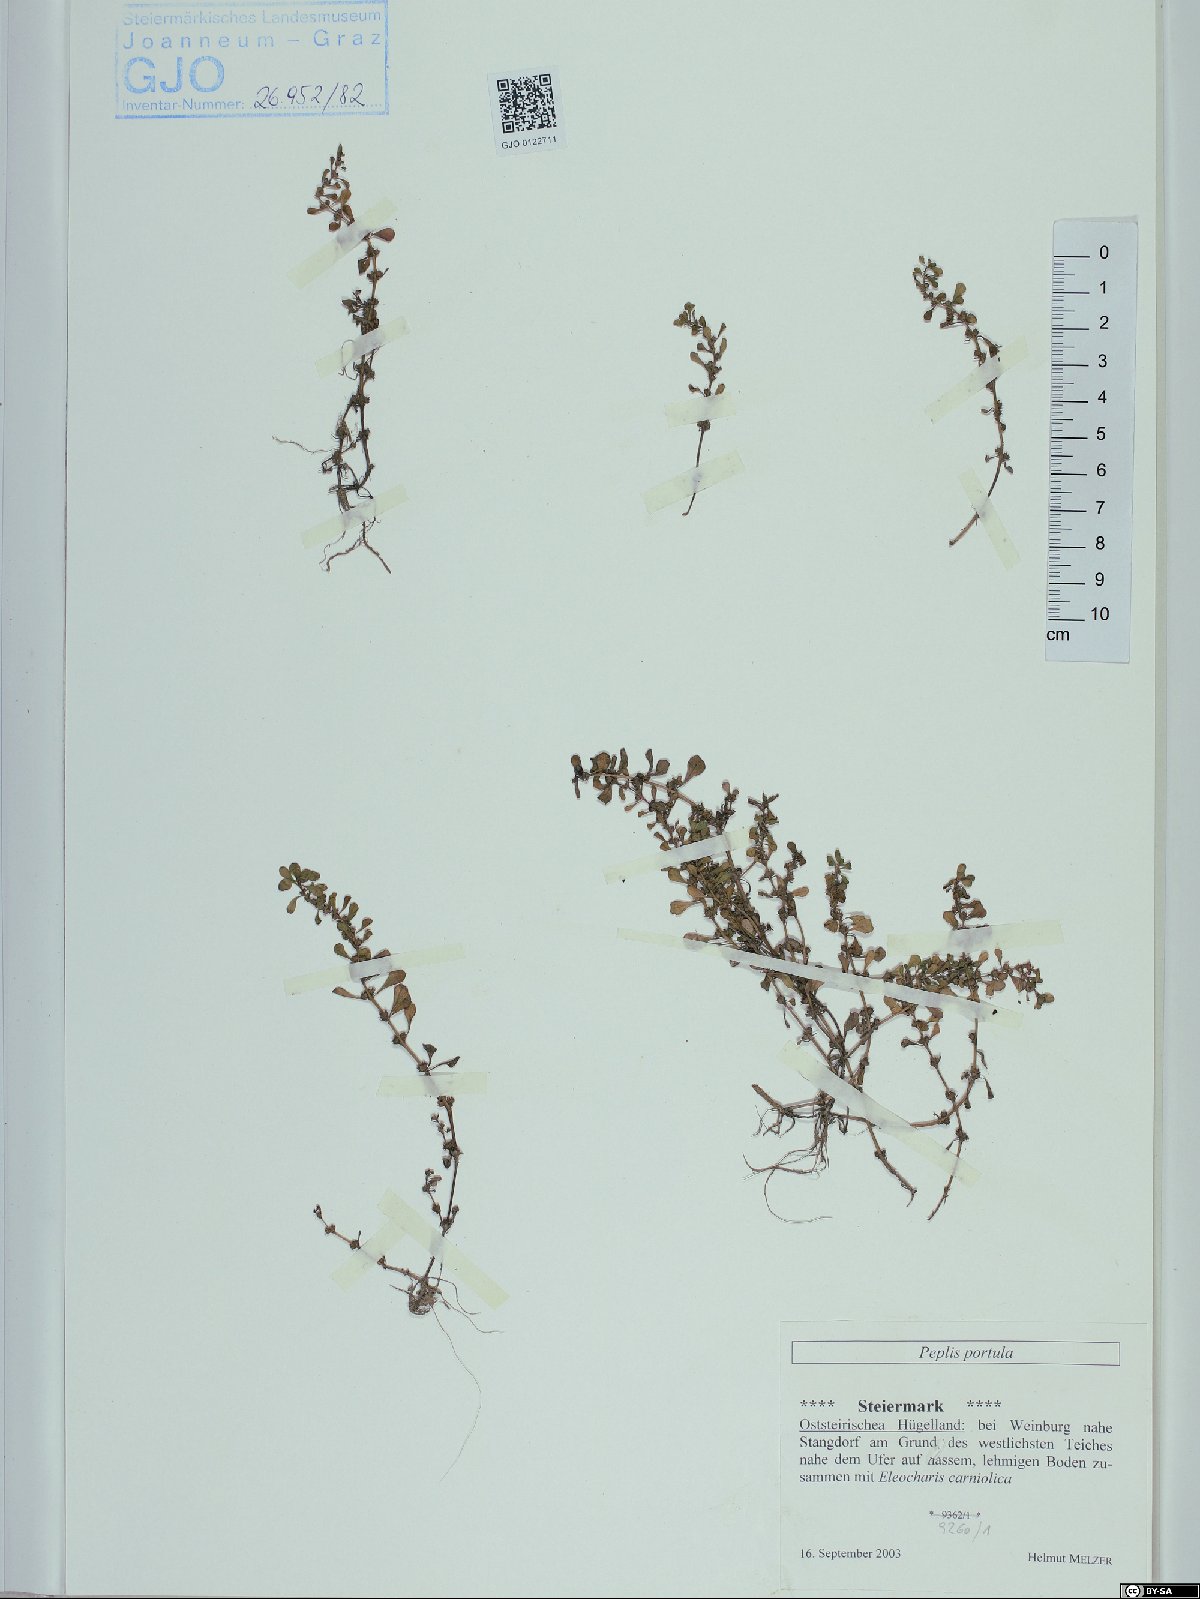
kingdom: Plantae
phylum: Tracheophyta
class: Magnoliopsida
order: Myrtales
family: Lythraceae
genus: Lythrum
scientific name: Lythrum portula
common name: Water purslane
